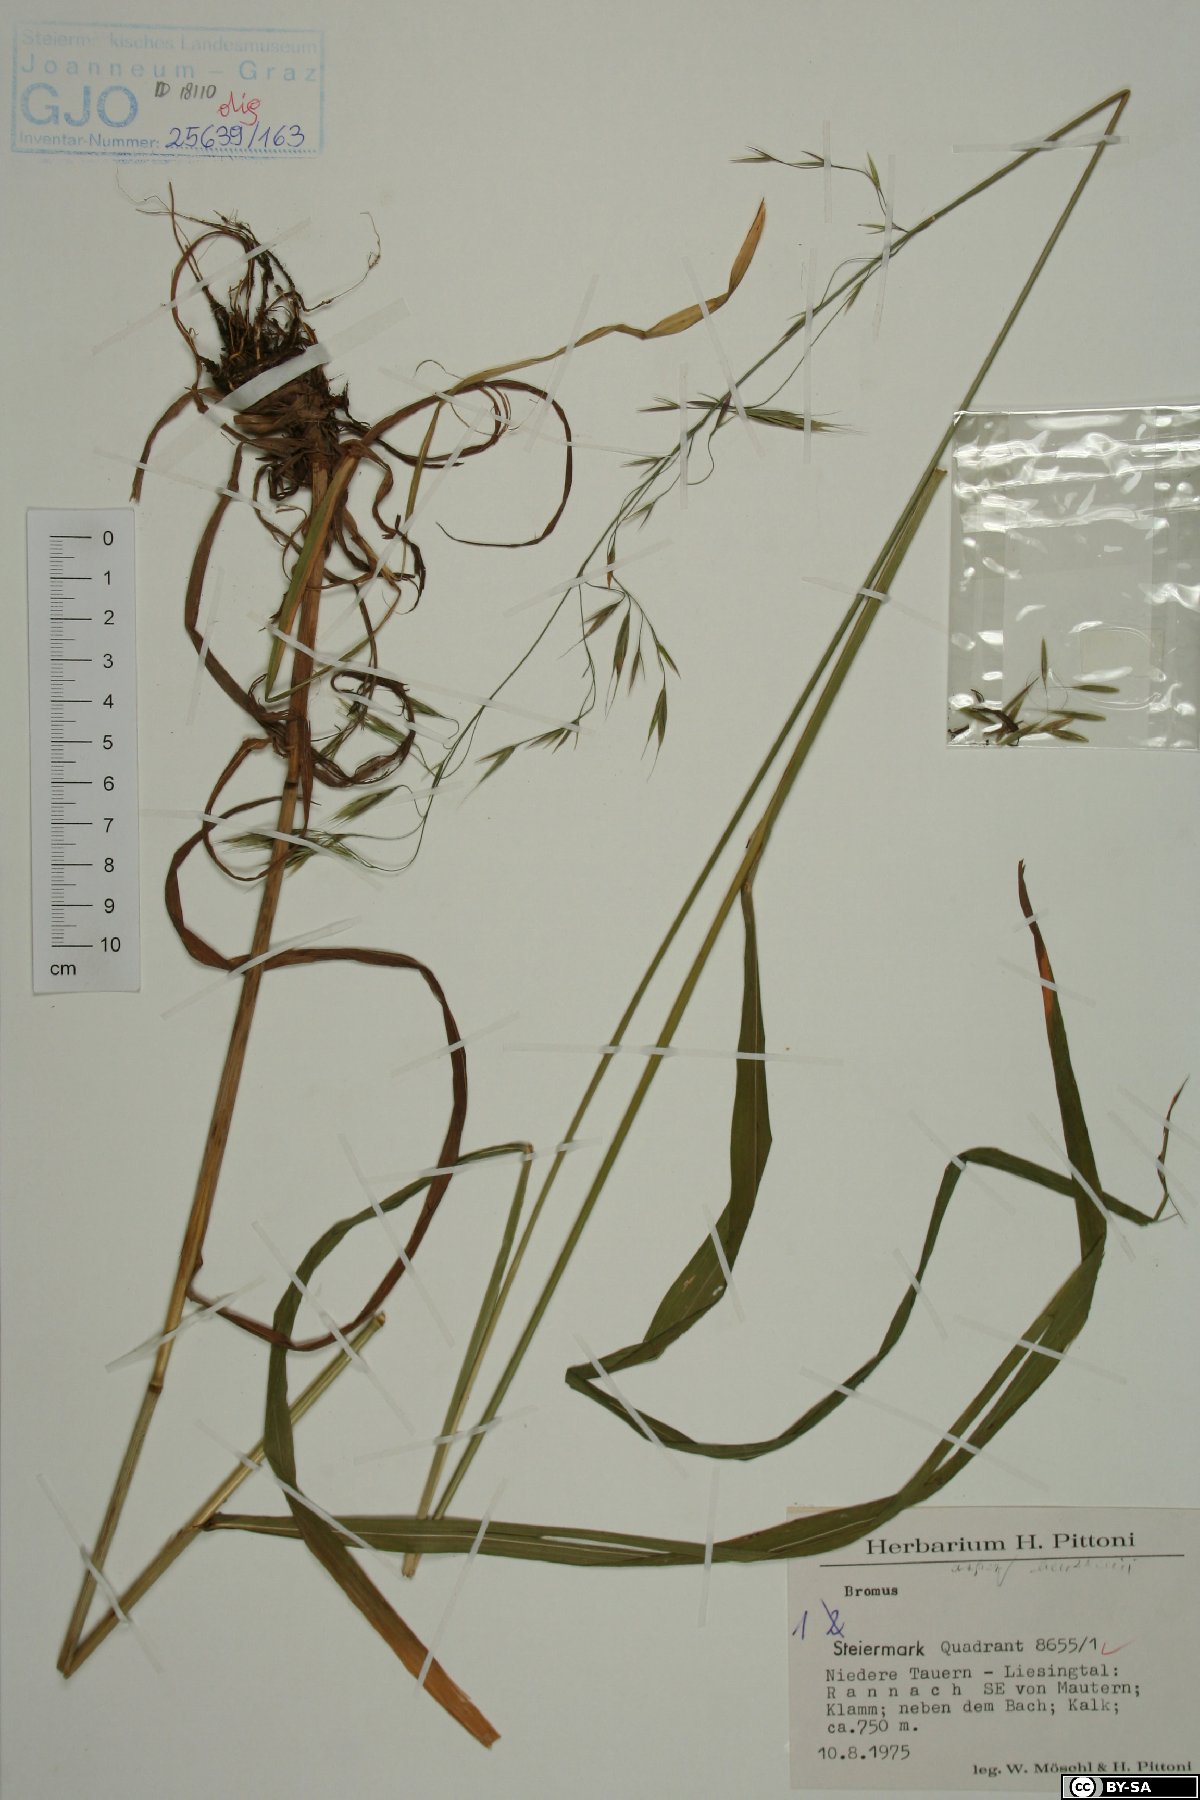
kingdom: Plantae
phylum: Tracheophyta
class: Liliopsida
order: Poales
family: Poaceae
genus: Bromus
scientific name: Bromus ramosus
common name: Hairy brome
